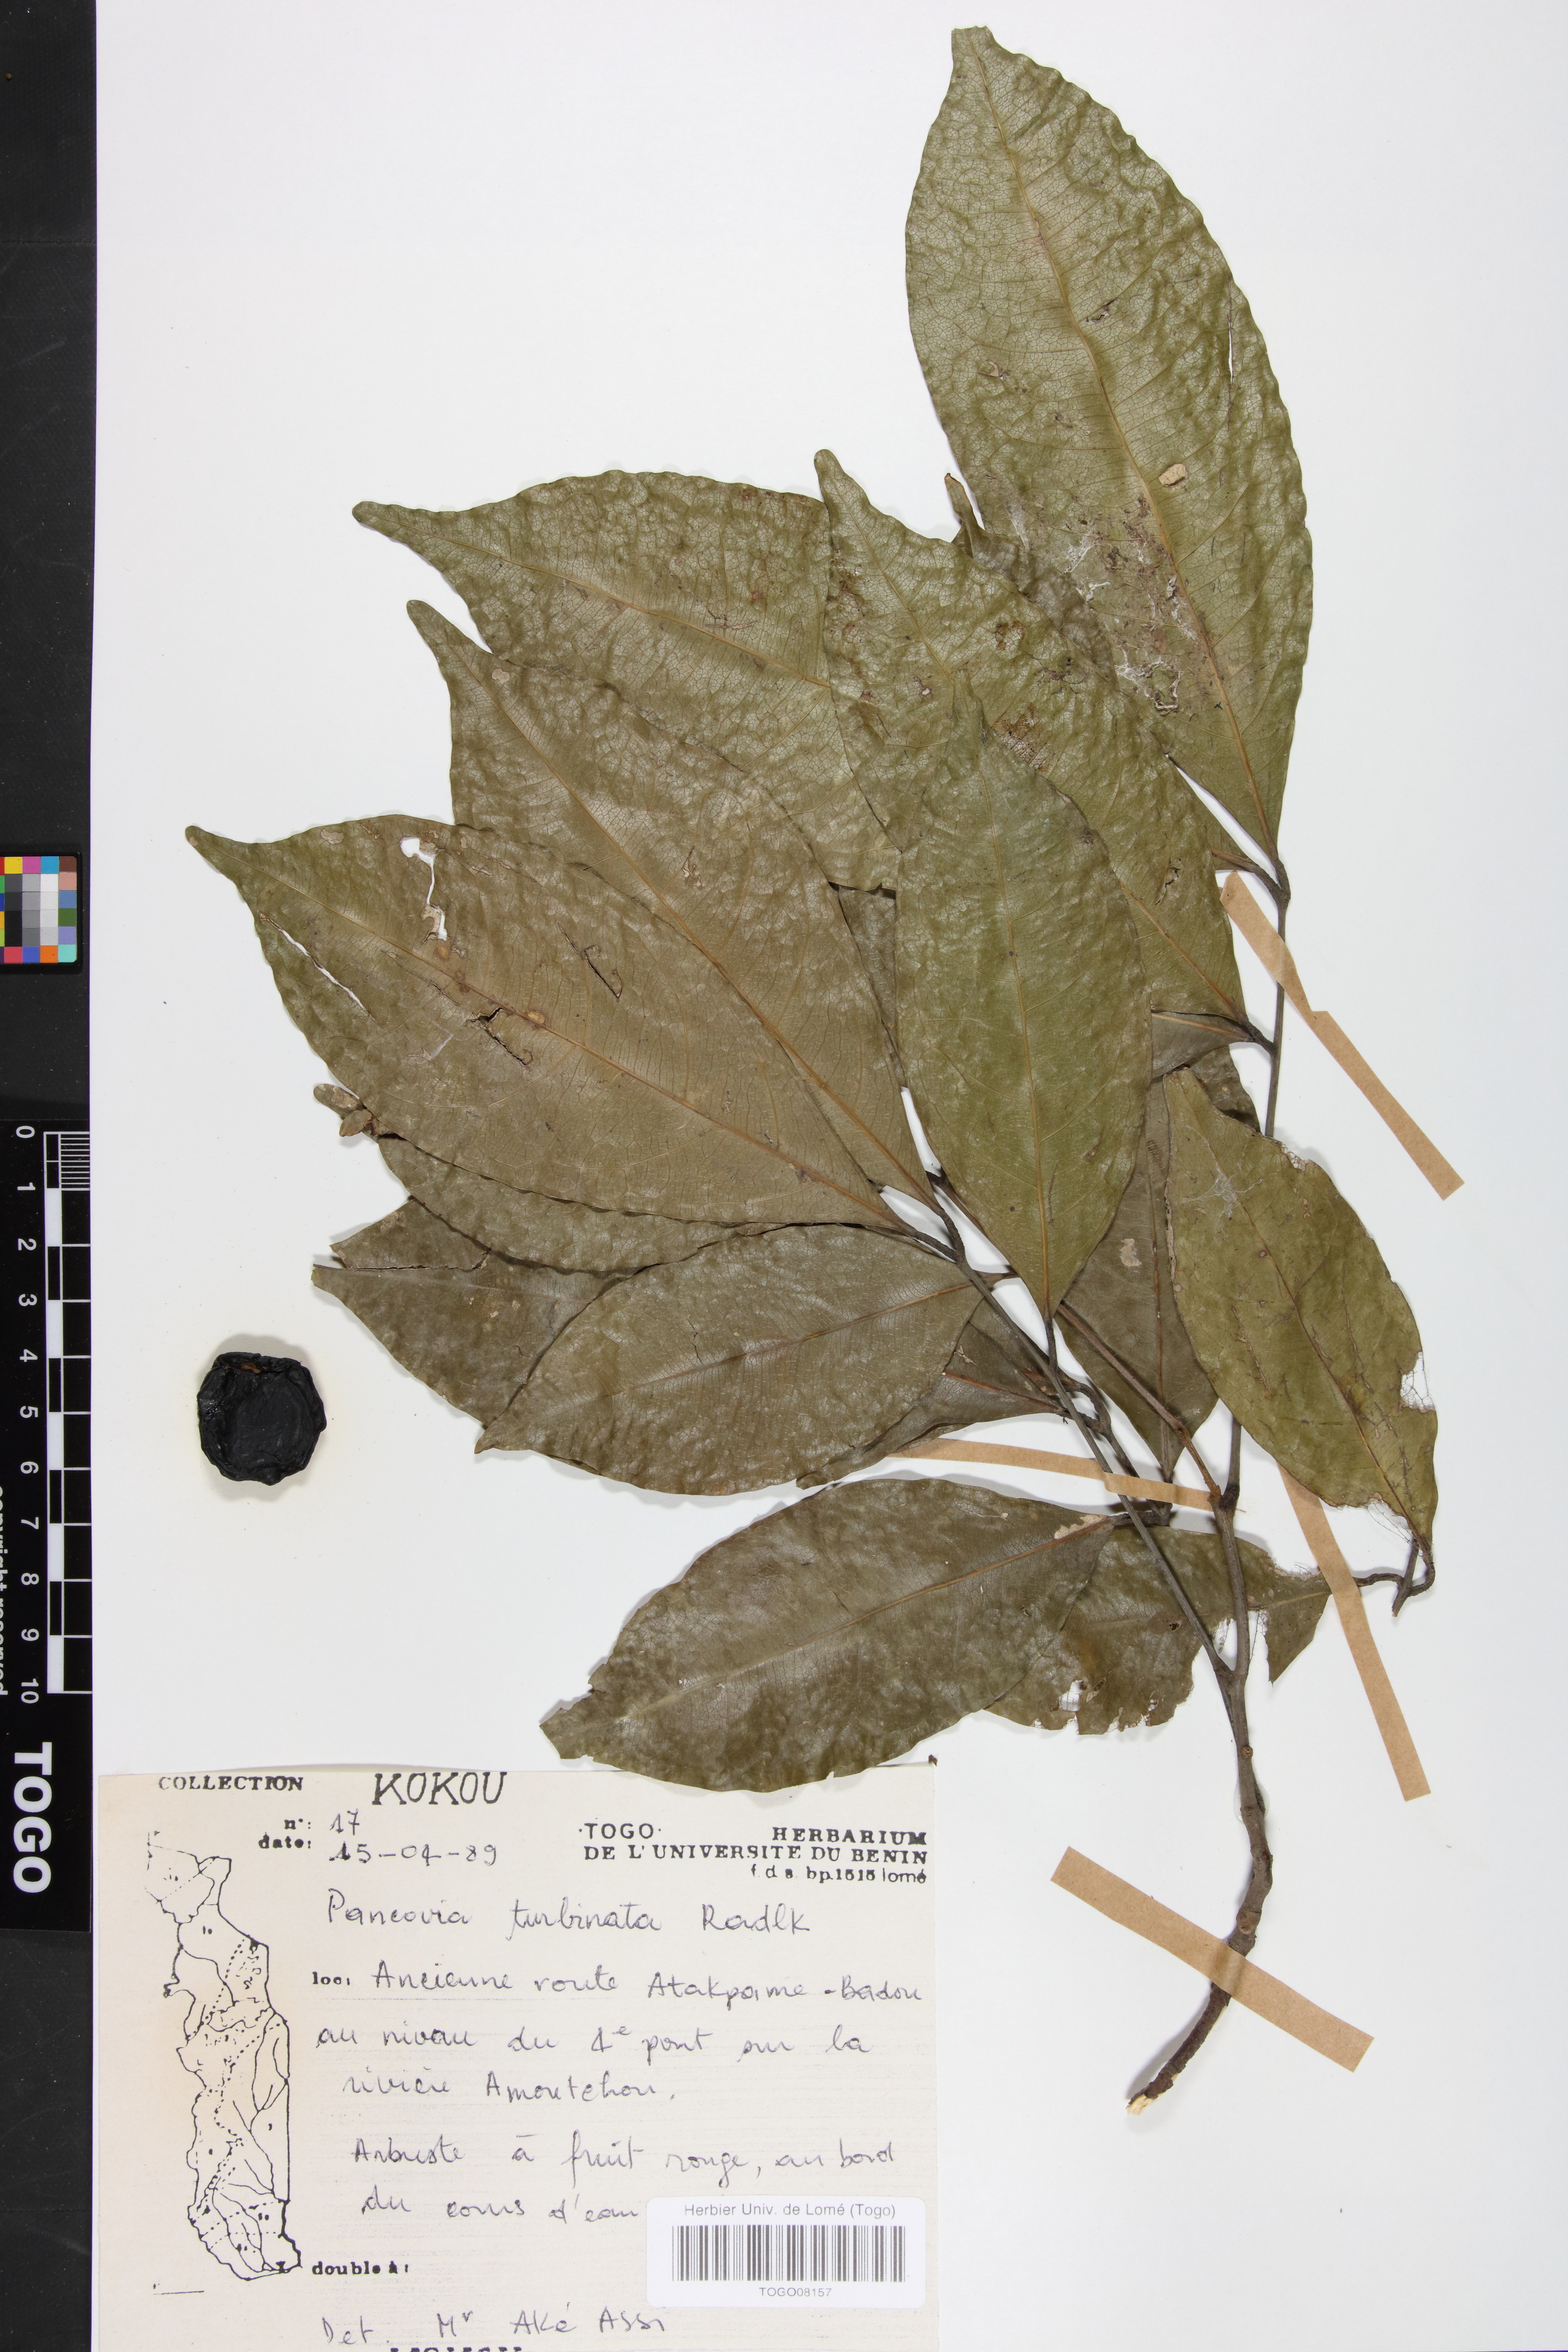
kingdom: Plantae
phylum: Tracheophyta
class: Magnoliopsida
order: Sapindales
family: Sapindaceae
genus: Pancovia
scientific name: Pancovia turbinata
